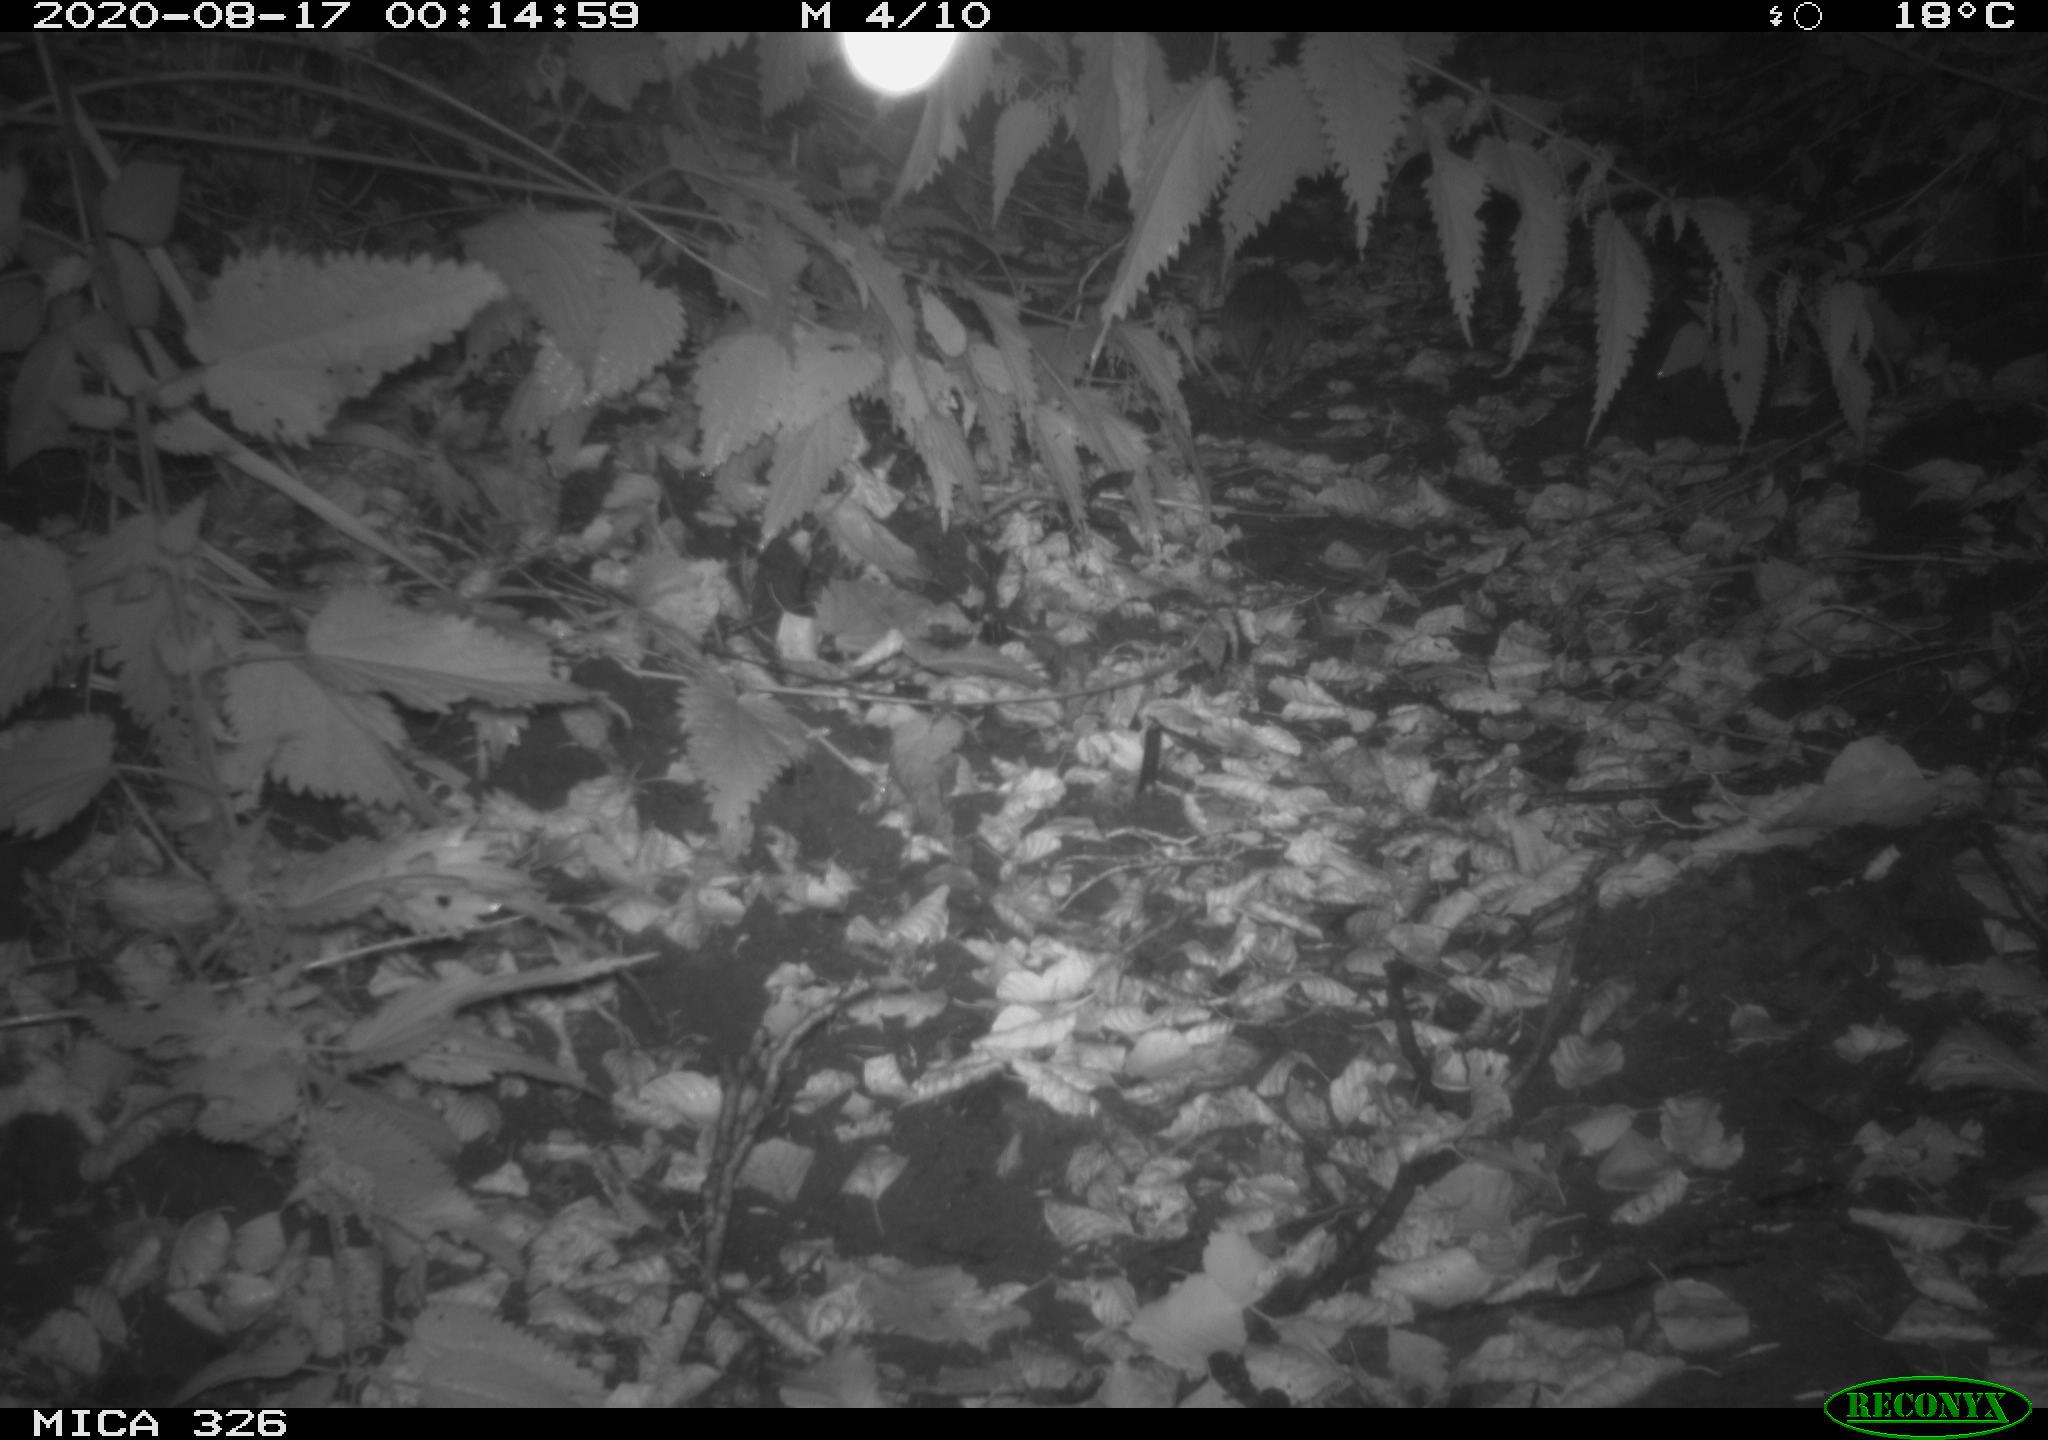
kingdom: Animalia
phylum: Chordata
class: Mammalia
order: Rodentia
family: Muridae
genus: Rattus
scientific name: Rattus norvegicus
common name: Brown rat
